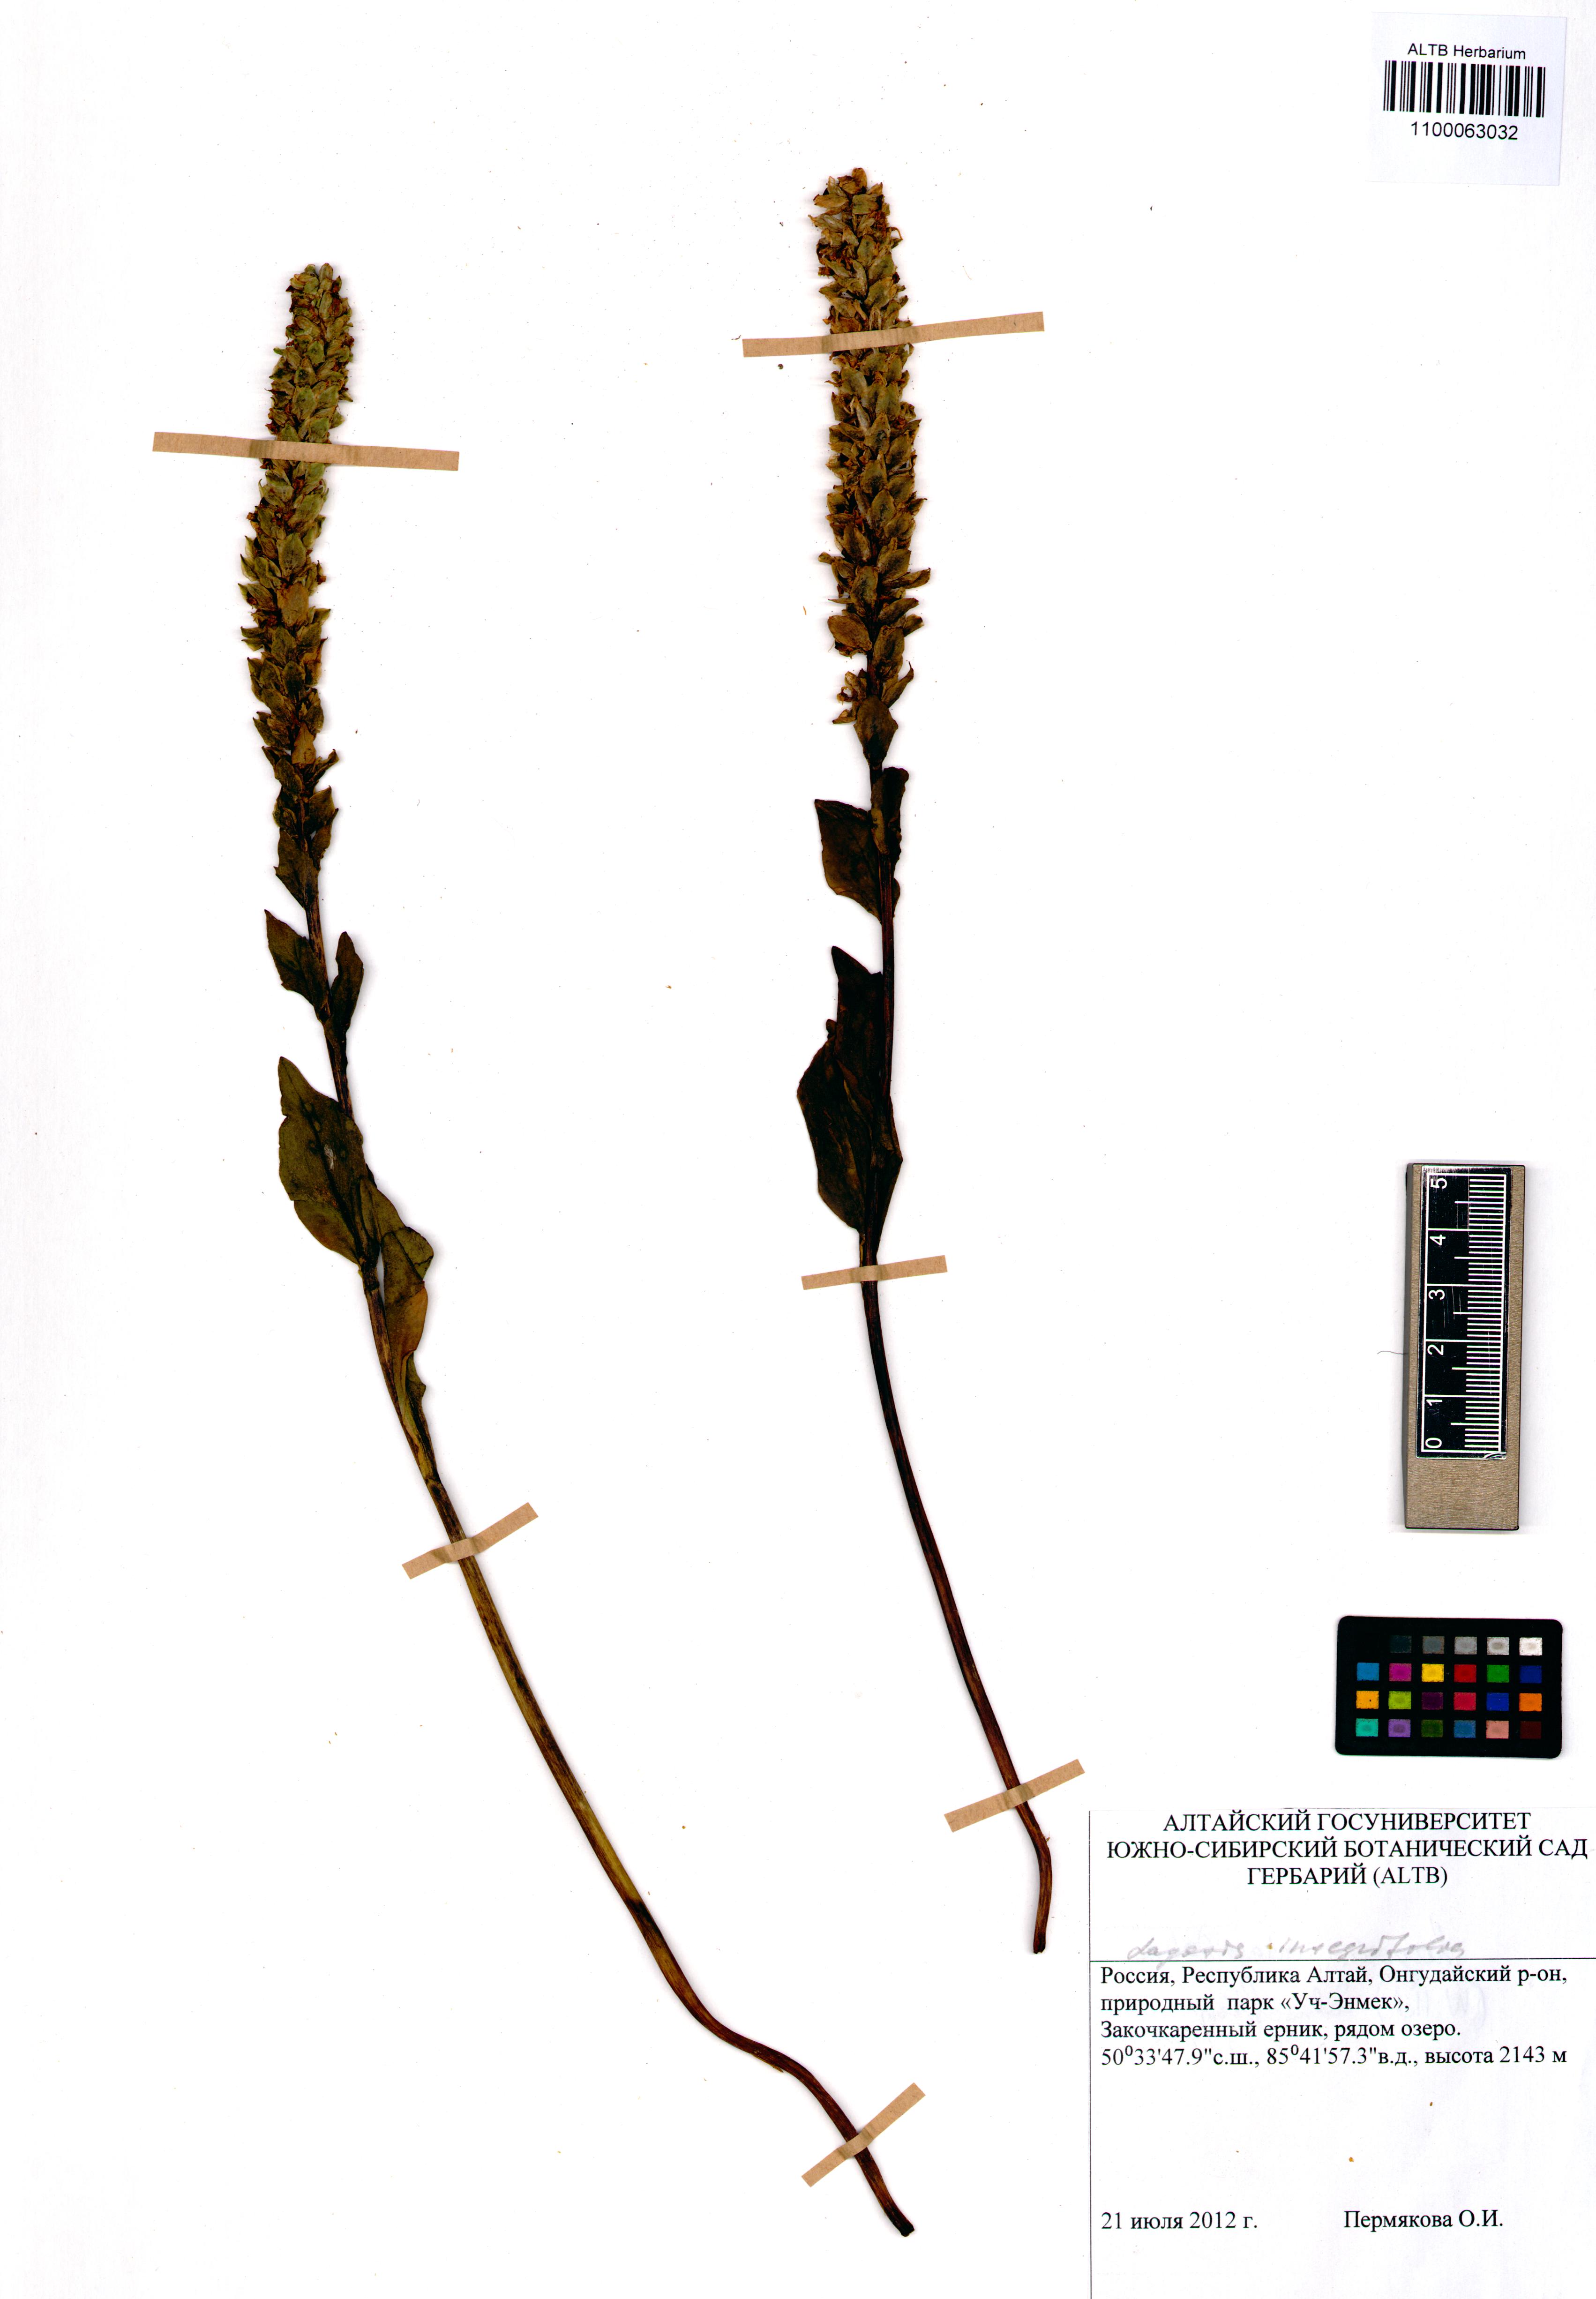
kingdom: Plantae
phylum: Tracheophyta
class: Magnoliopsida
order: Lamiales
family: Plantaginaceae
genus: Lagotis
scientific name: Lagotis integrifolia
